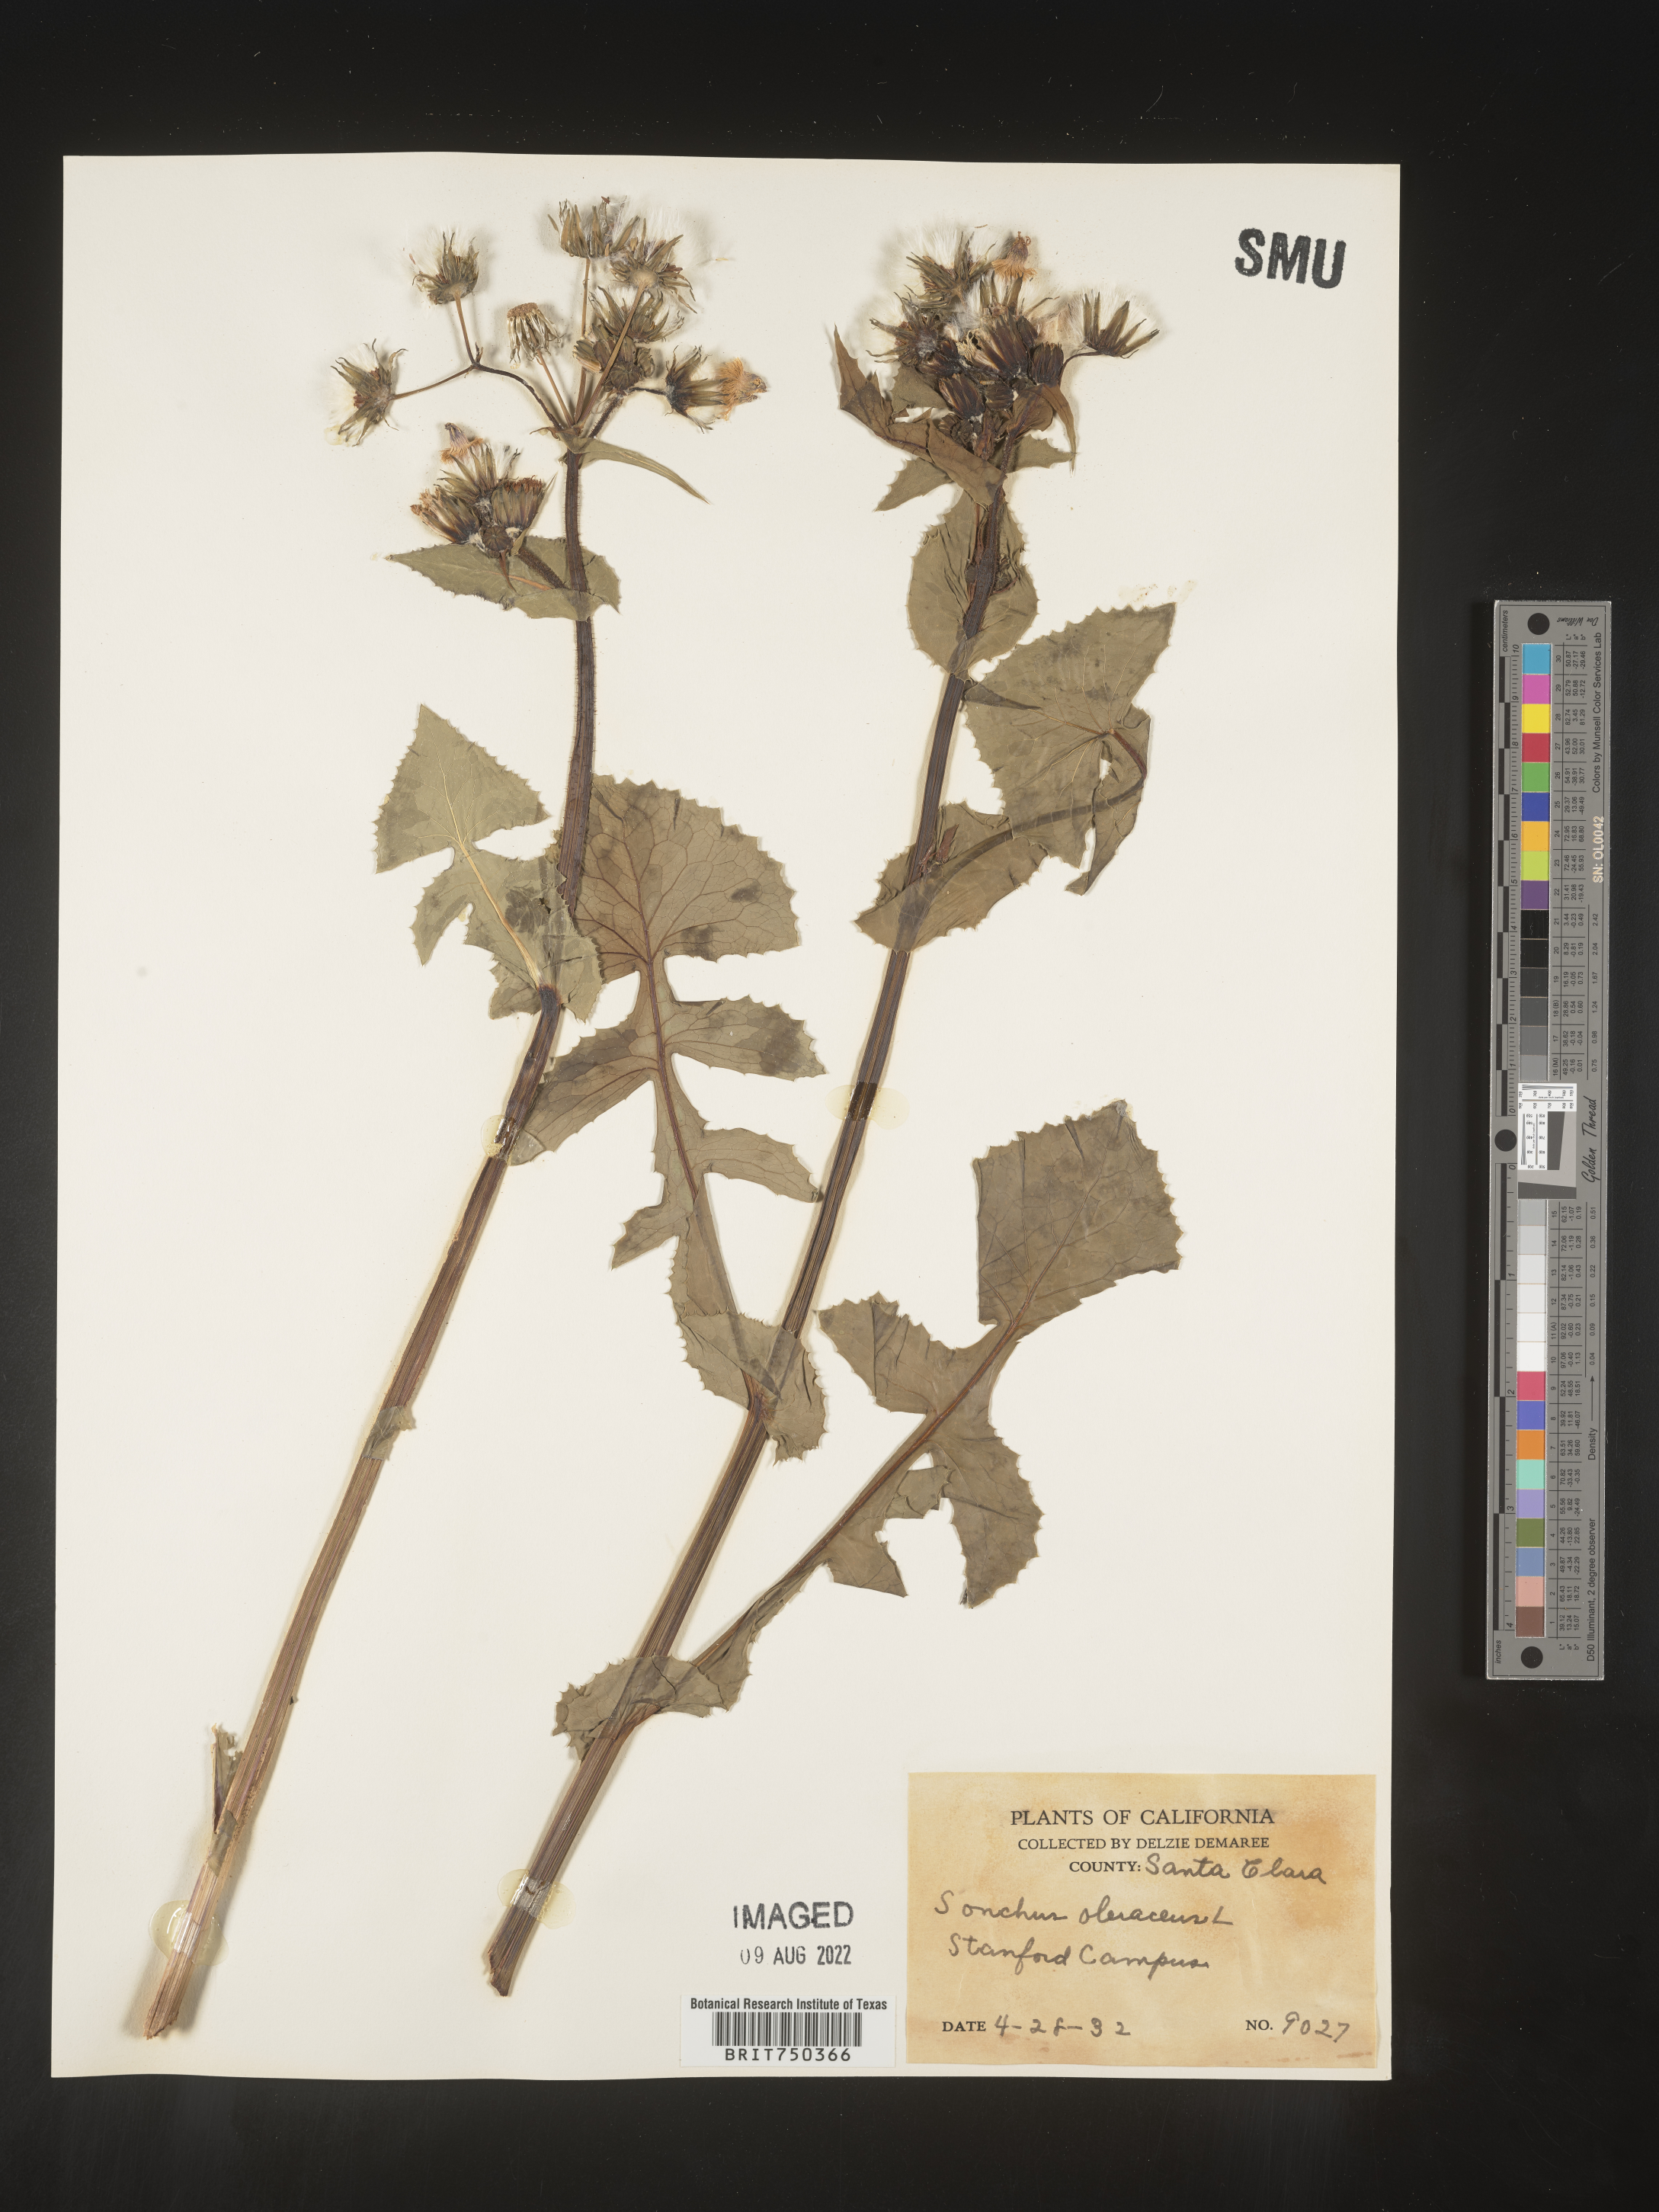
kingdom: Plantae
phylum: Tracheophyta
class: Magnoliopsida
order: Asterales
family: Asteraceae
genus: Sonchus
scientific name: Sonchus oleraceus
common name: Common sowthistle
